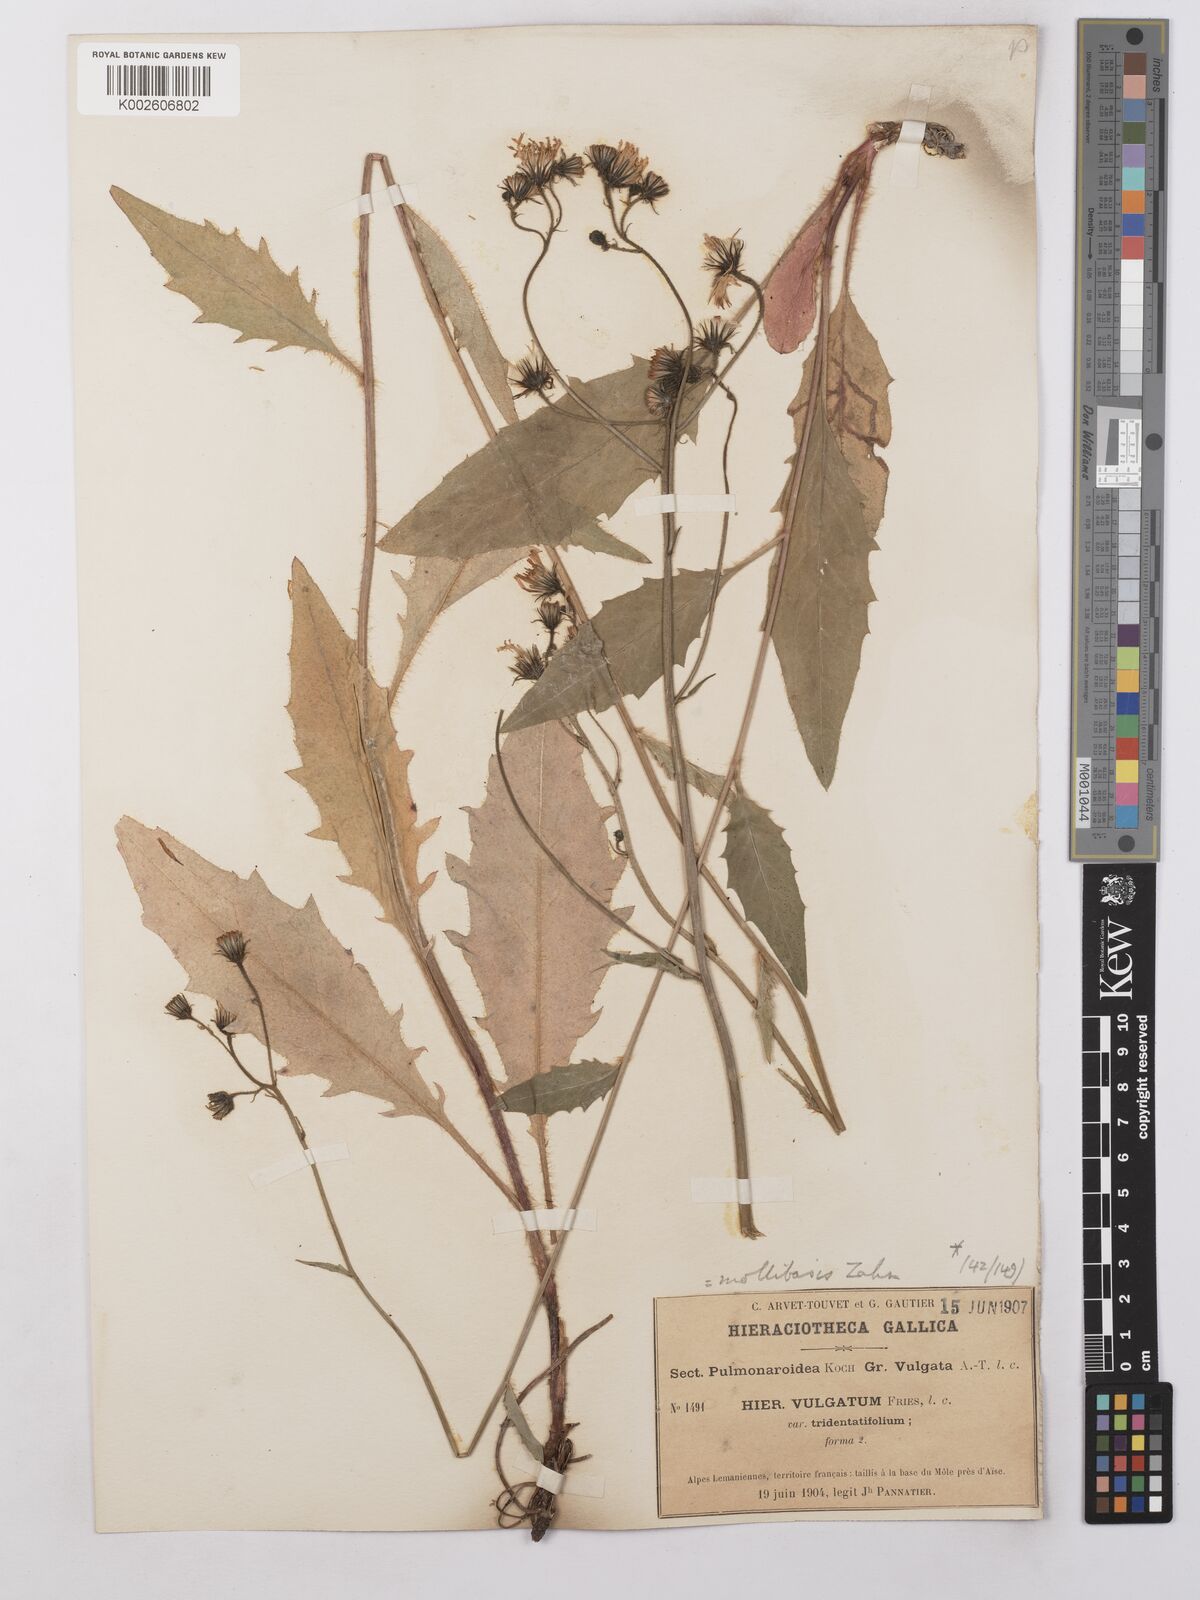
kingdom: Plantae
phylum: Tracheophyta
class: Magnoliopsida
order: Asterales
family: Asteraceae
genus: Hieracium
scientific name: Hieracium lachenalii
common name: Common hawkweed
